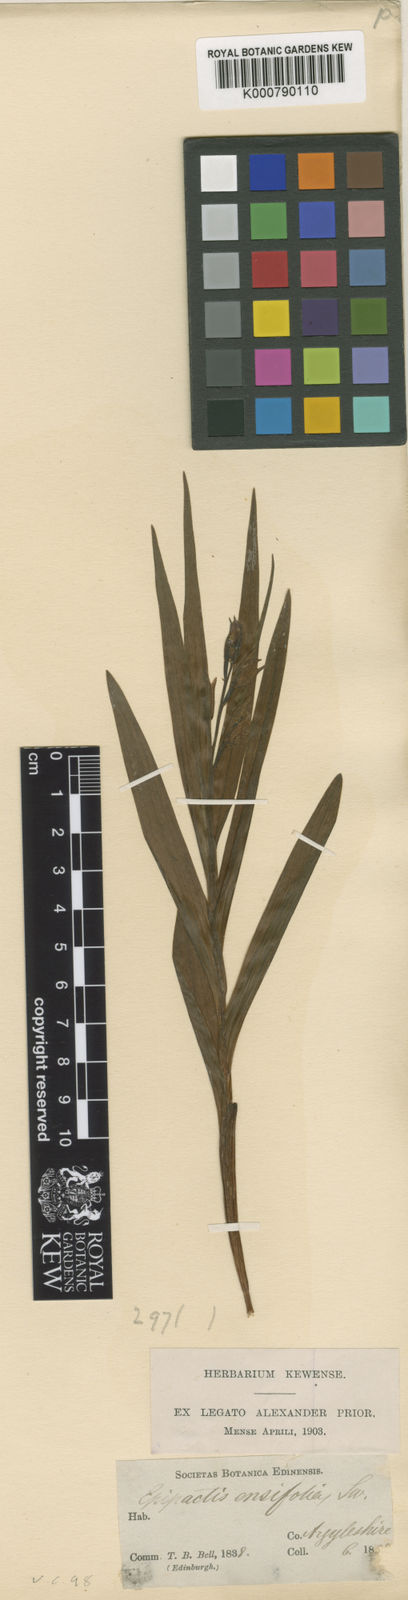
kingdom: Plantae
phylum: Tracheophyta
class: Liliopsida
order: Asparagales
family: Orchidaceae
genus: Cephalanthera
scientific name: Cephalanthera longifolia
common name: Narrow-leaved helleborine
